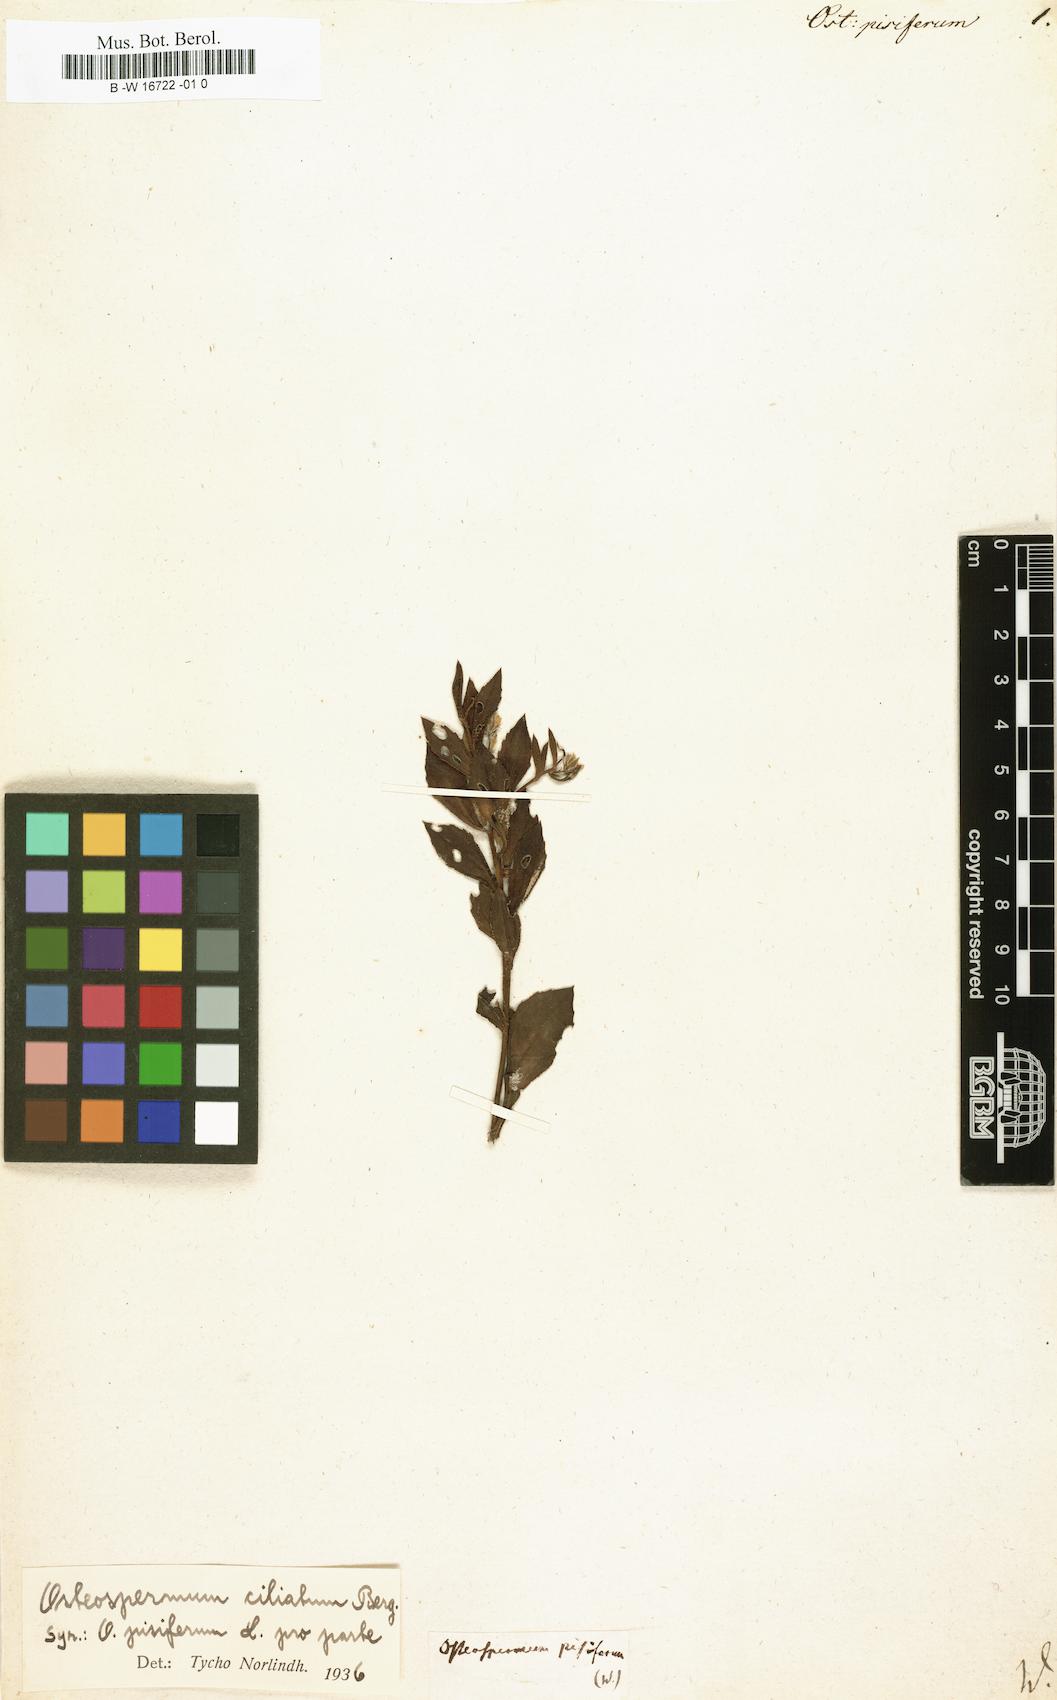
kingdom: Plantae
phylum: Tracheophyta
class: Magnoliopsida
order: Asterales
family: Asteraceae
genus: Osteospermum
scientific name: Osteospermum
